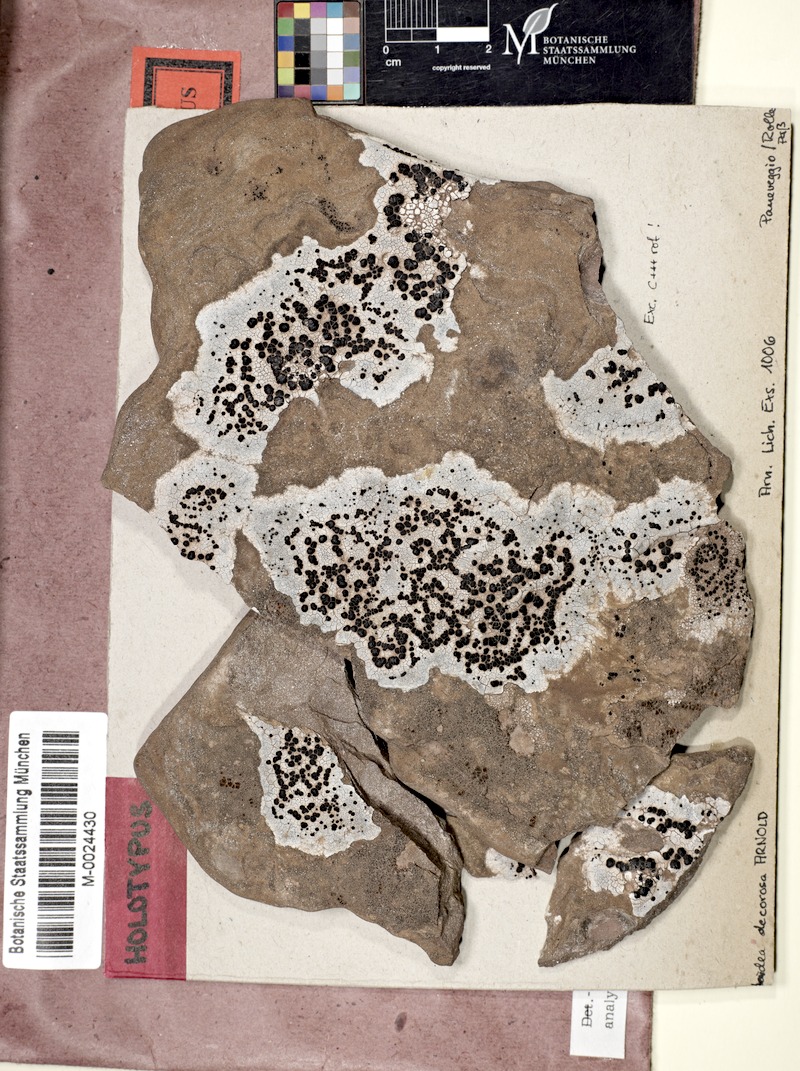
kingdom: Fungi
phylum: Ascomycota
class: Lecanoromycetes
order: Lecideales
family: Lecideaceae
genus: Lecidea
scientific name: Lecidea speirodes
